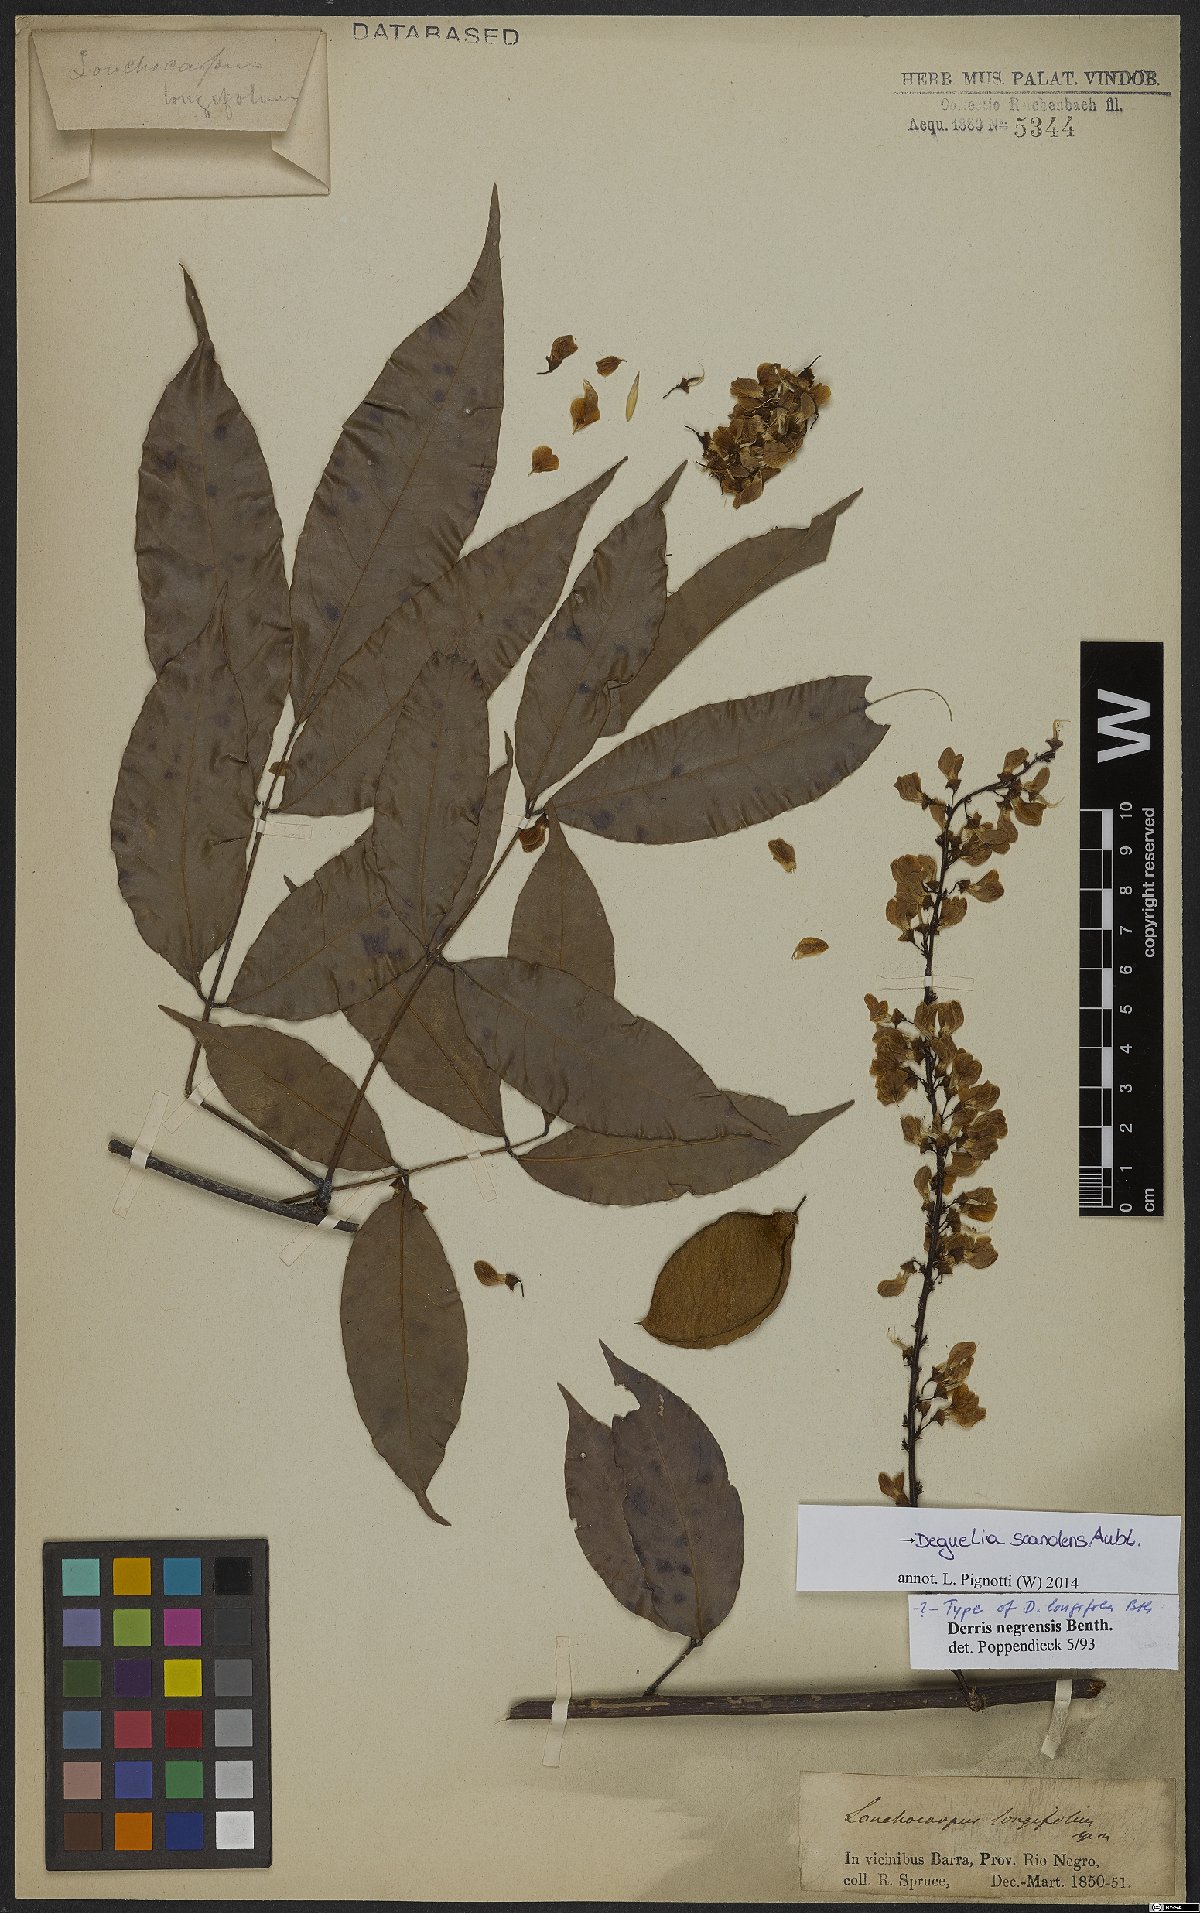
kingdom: Plantae
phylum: Tracheophyta
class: Magnoliopsida
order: Fabales
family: Fabaceae
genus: Deguelia
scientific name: Deguelia scandens
